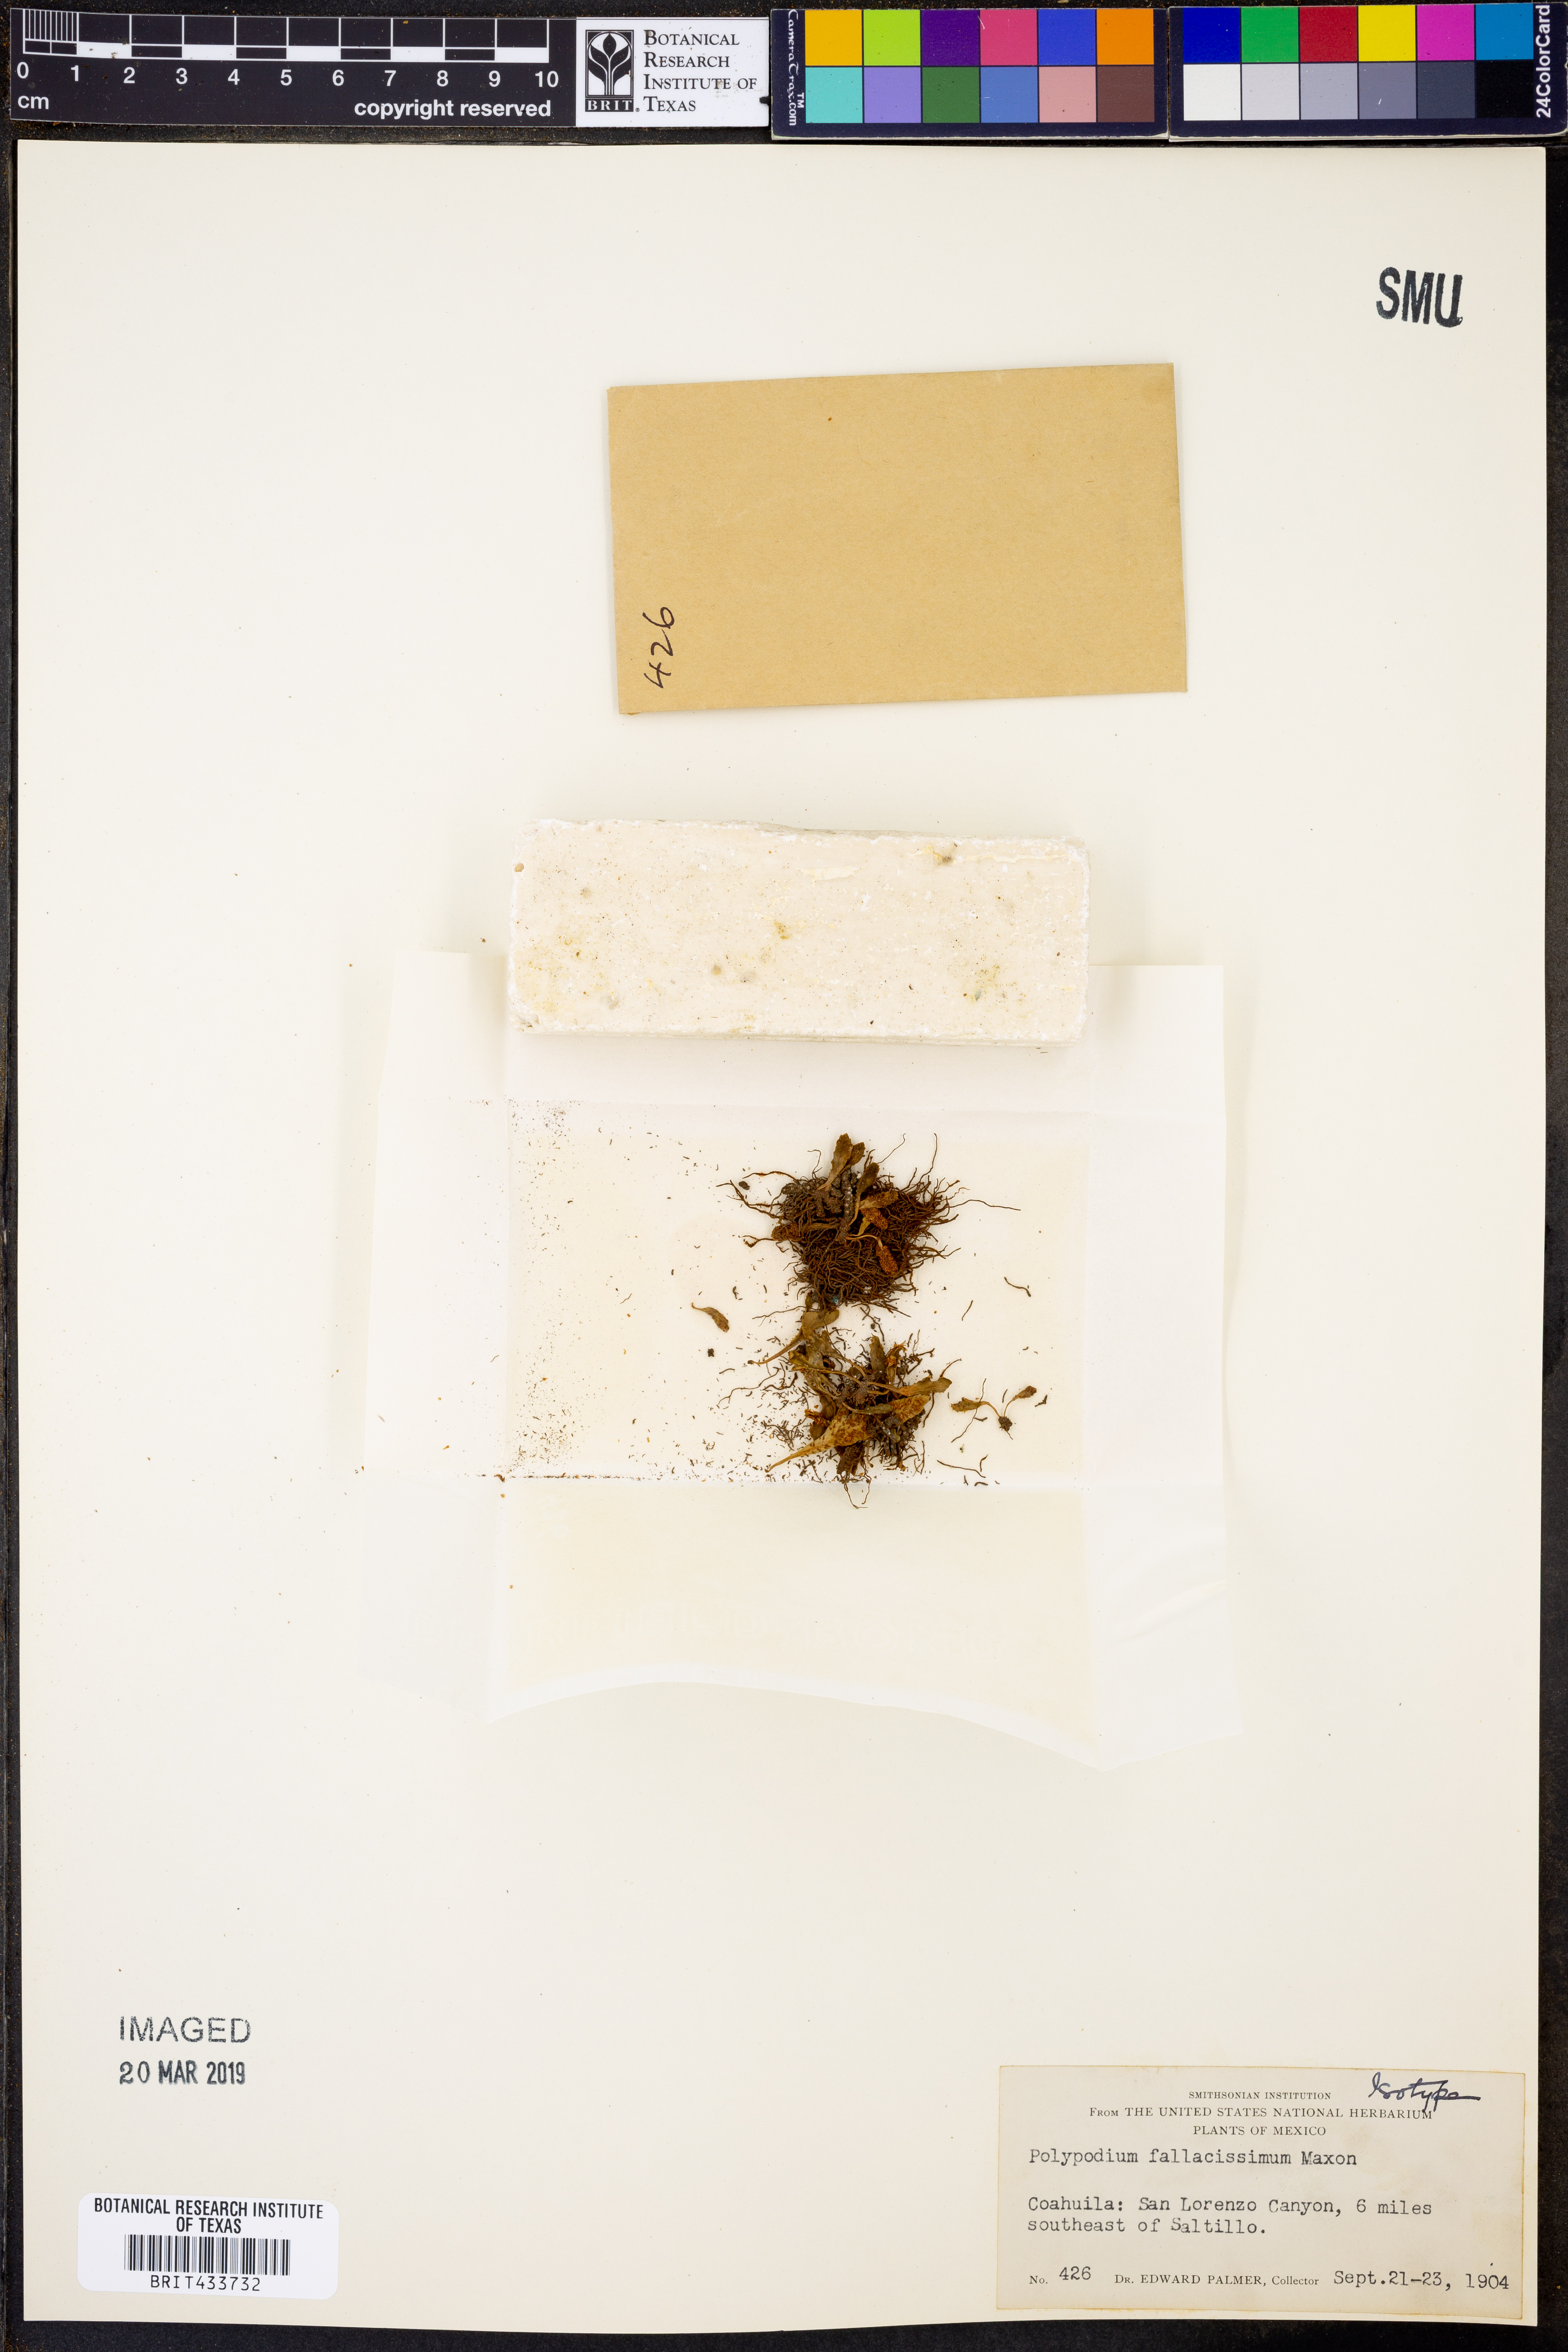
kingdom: Plantae
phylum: Tracheophyta
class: Polypodiopsida
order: Polypodiales
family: Polypodiaceae
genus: Pleopeltis
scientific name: Pleopeltis fallacissima
